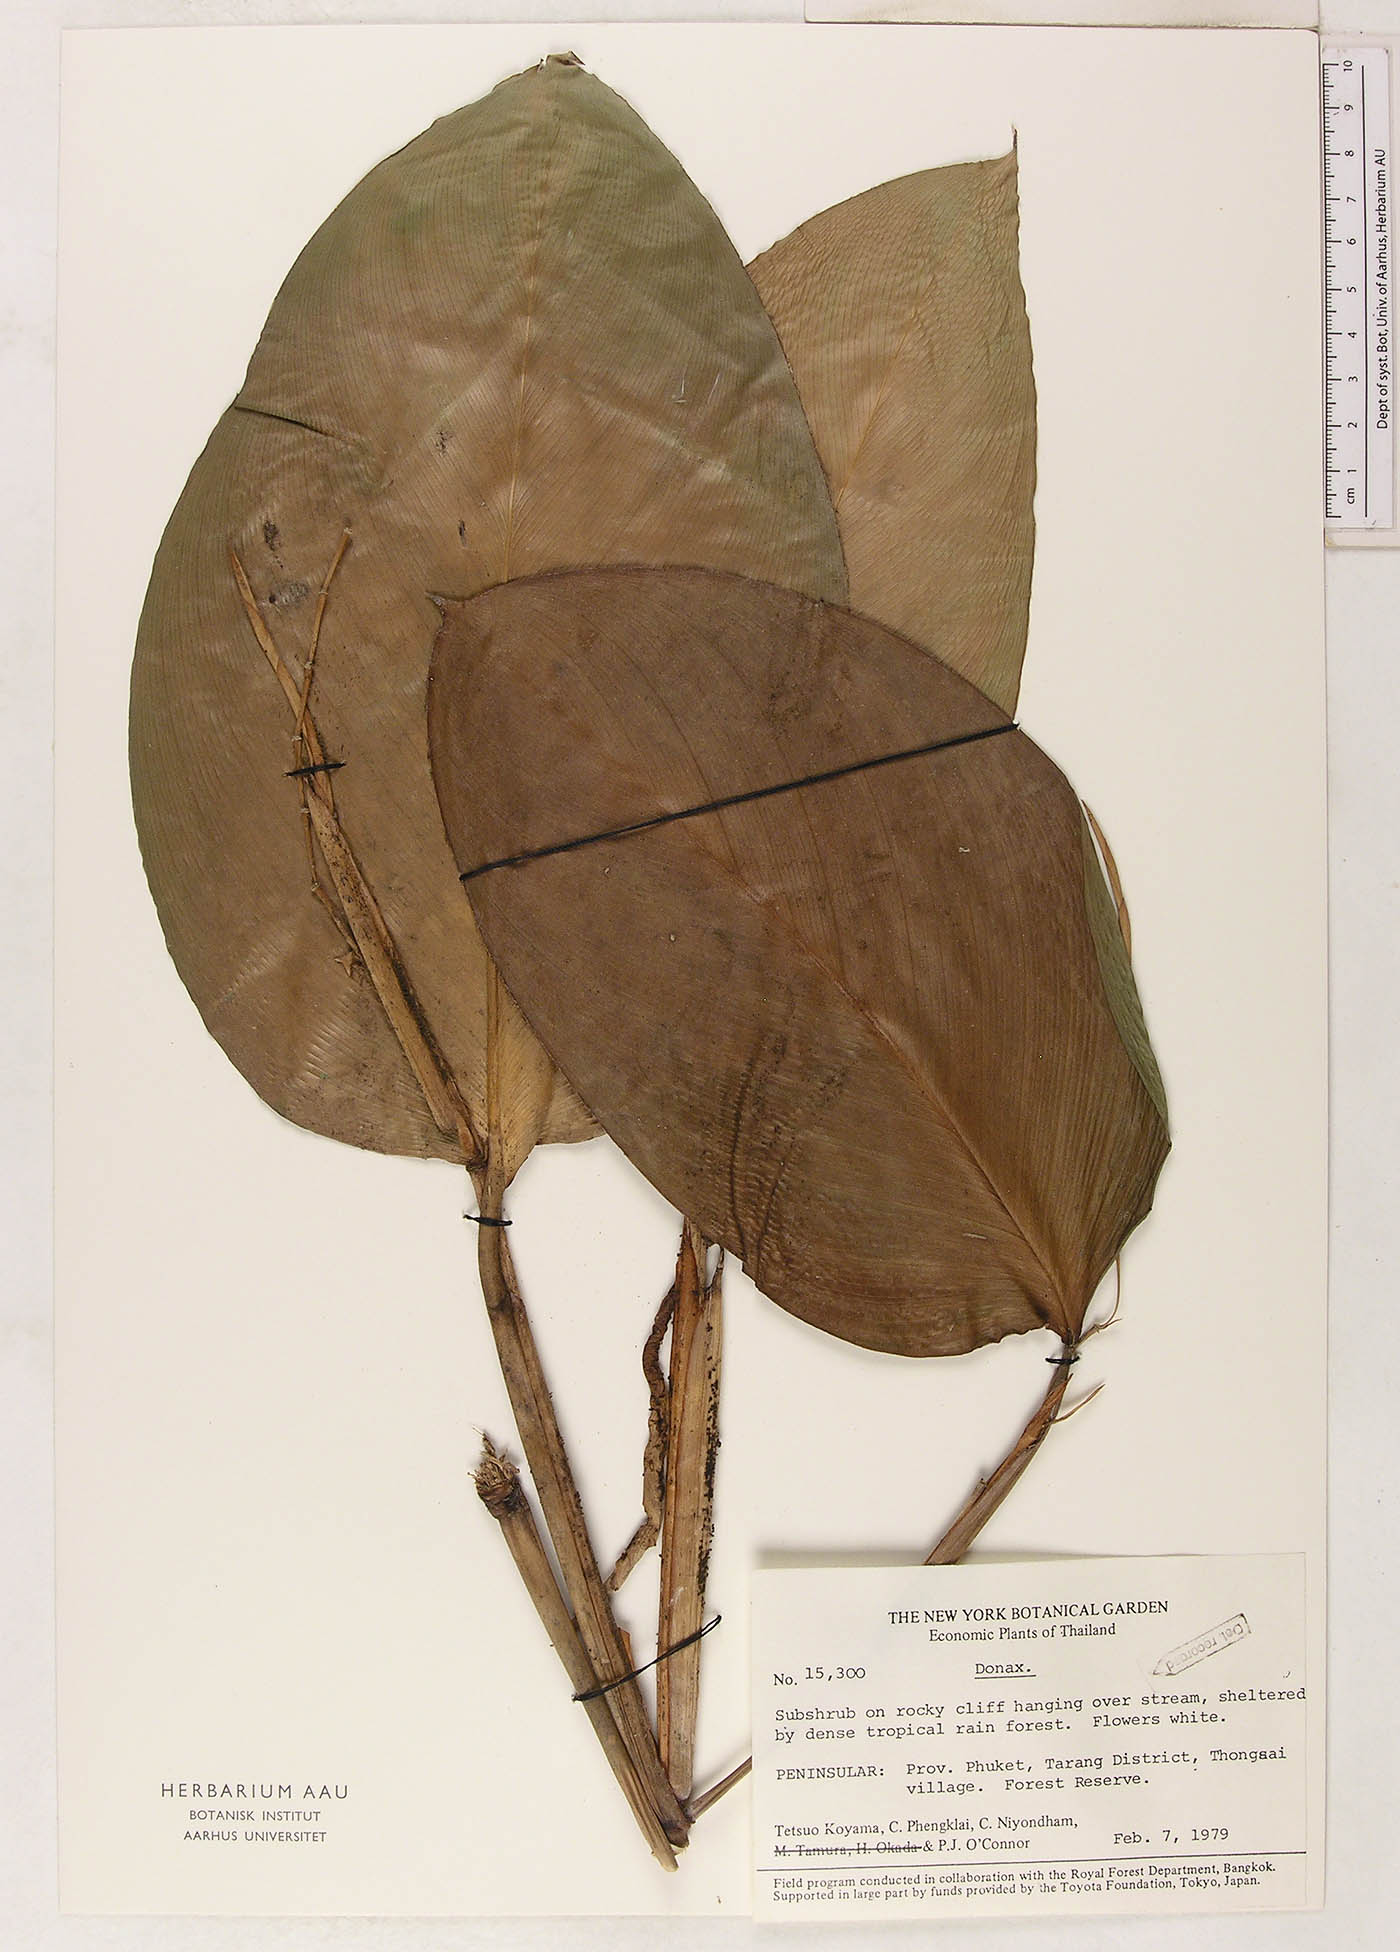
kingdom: Plantae
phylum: Tracheophyta
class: Liliopsida
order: Zingiberales
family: Marantaceae
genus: Donax
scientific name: Donax canniformis
